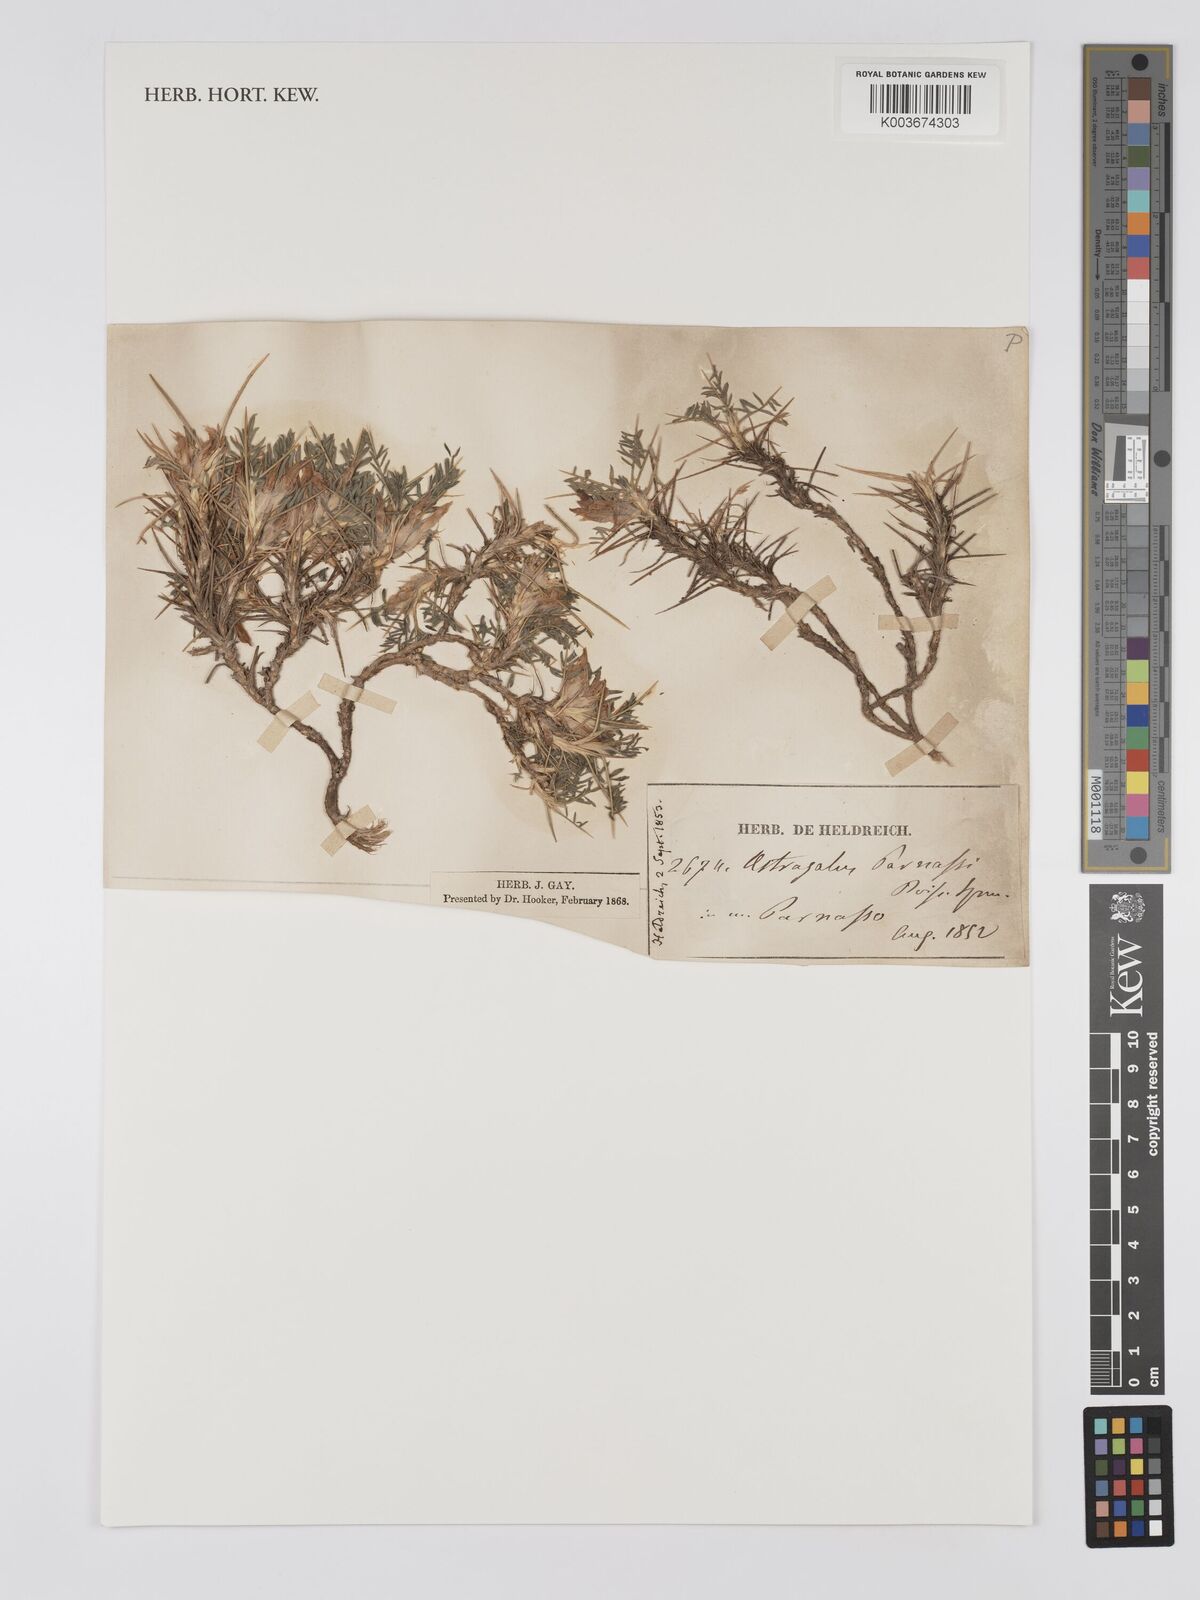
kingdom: Plantae
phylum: Tracheophyta
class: Magnoliopsida
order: Fabales
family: Fabaceae
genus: Astragalus
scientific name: Astragalus parnassi
